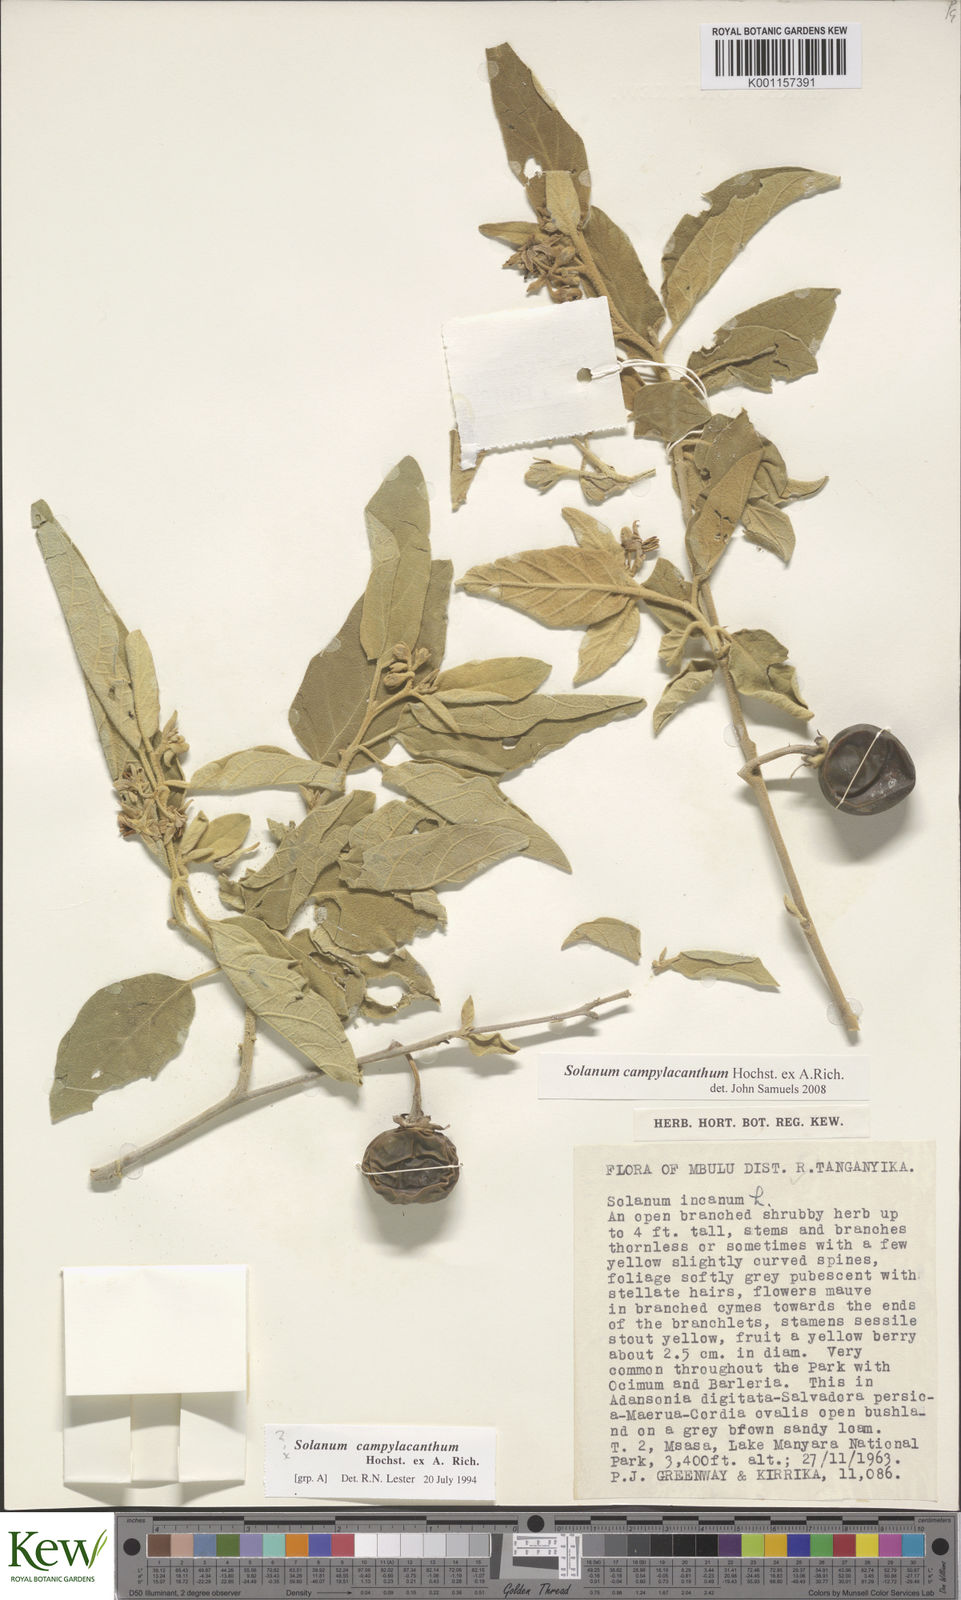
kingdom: Plantae
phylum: Tracheophyta
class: Magnoliopsida
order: Solanales
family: Solanaceae
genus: Solanum
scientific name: Solanum campylacanthum
